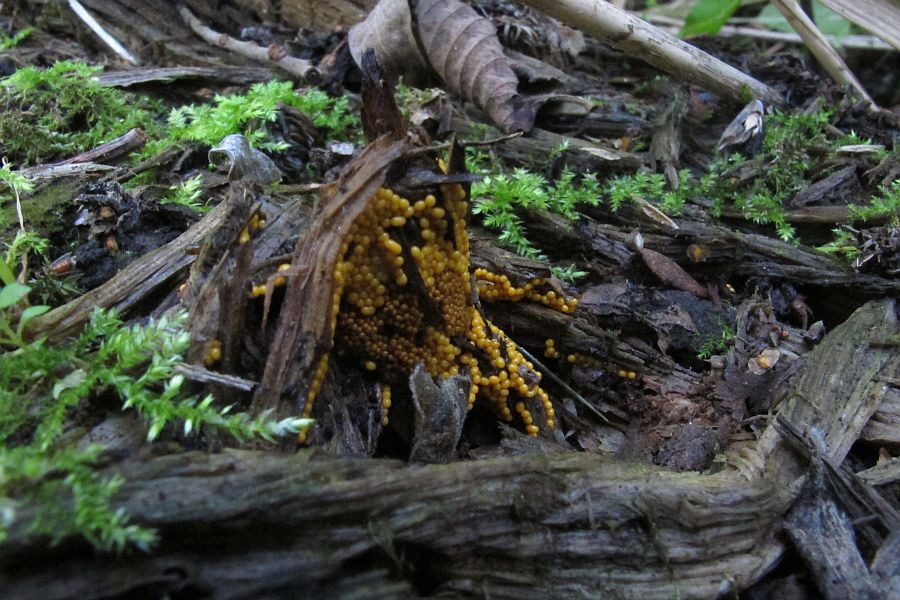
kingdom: Protozoa
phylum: Mycetozoa
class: Myxomycetes
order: Trichiales
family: Trichiaceae
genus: Oligonema
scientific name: Oligonema affine
